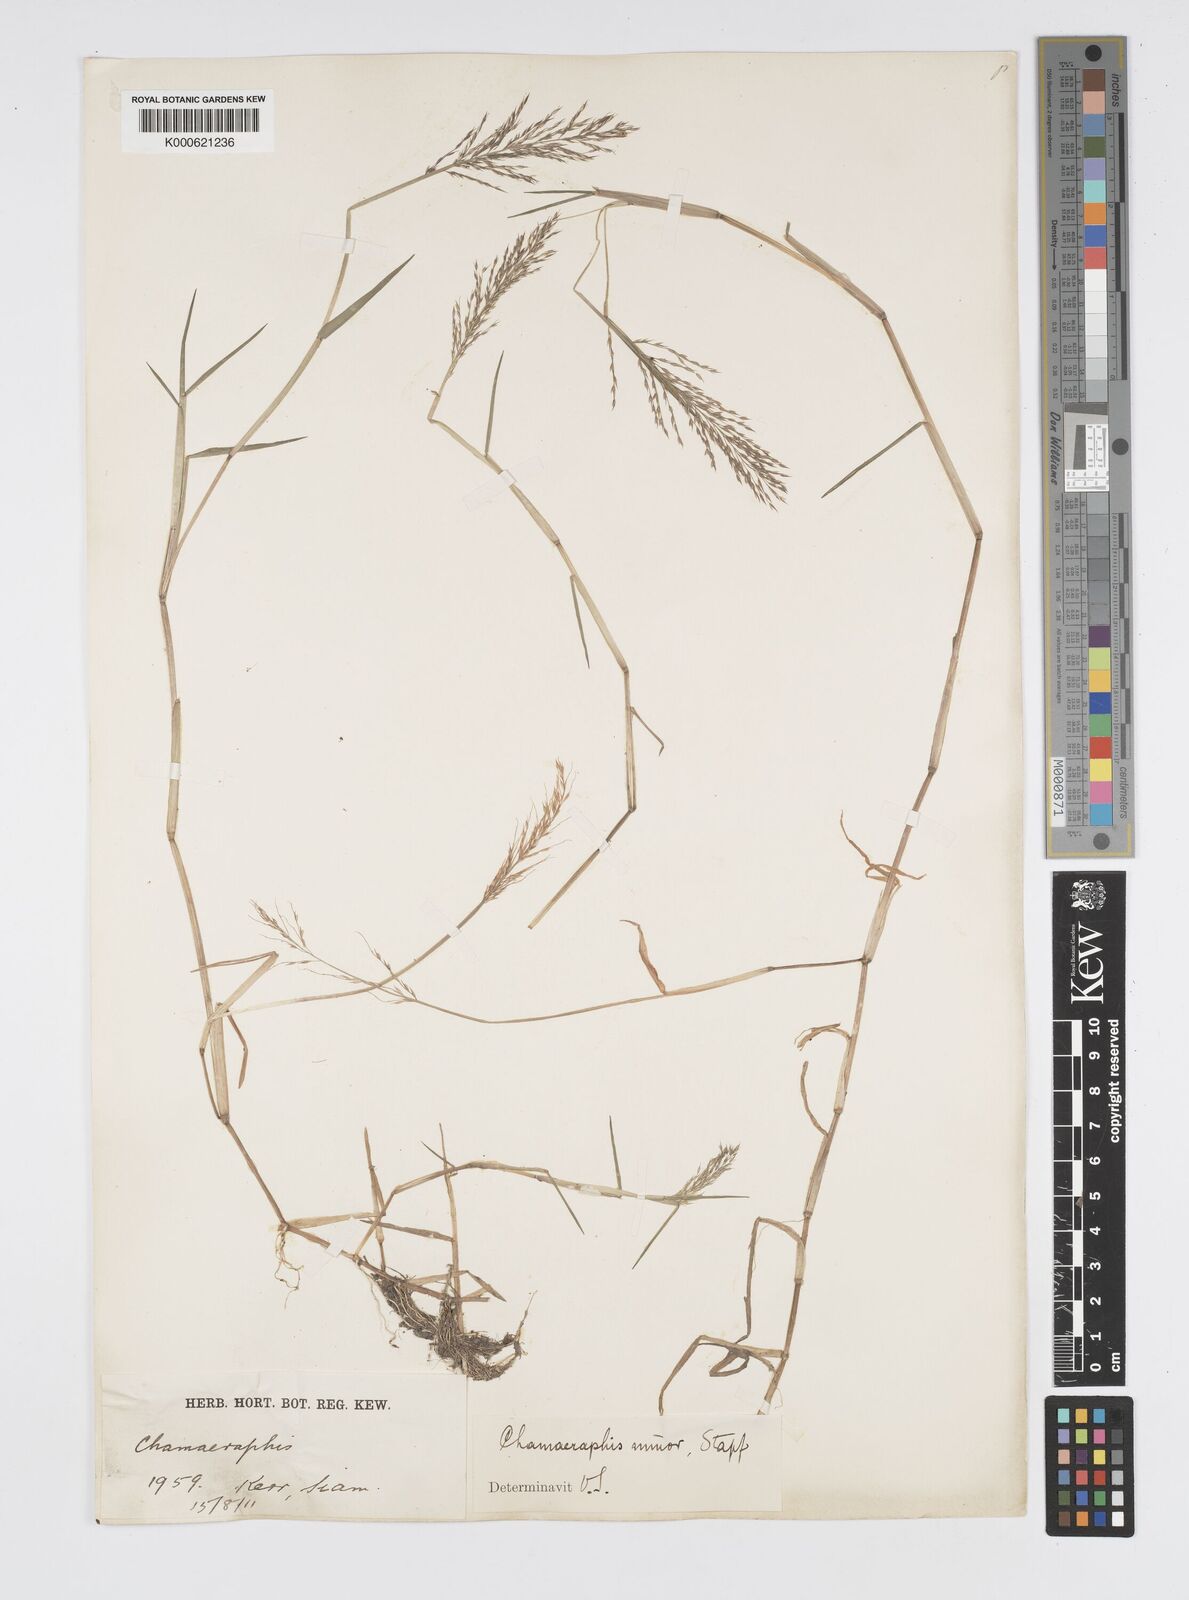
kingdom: Plantae
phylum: Tracheophyta
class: Liliopsida
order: Poales
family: Poaceae
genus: Pseudoraphis
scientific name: Pseudoraphis minuta
